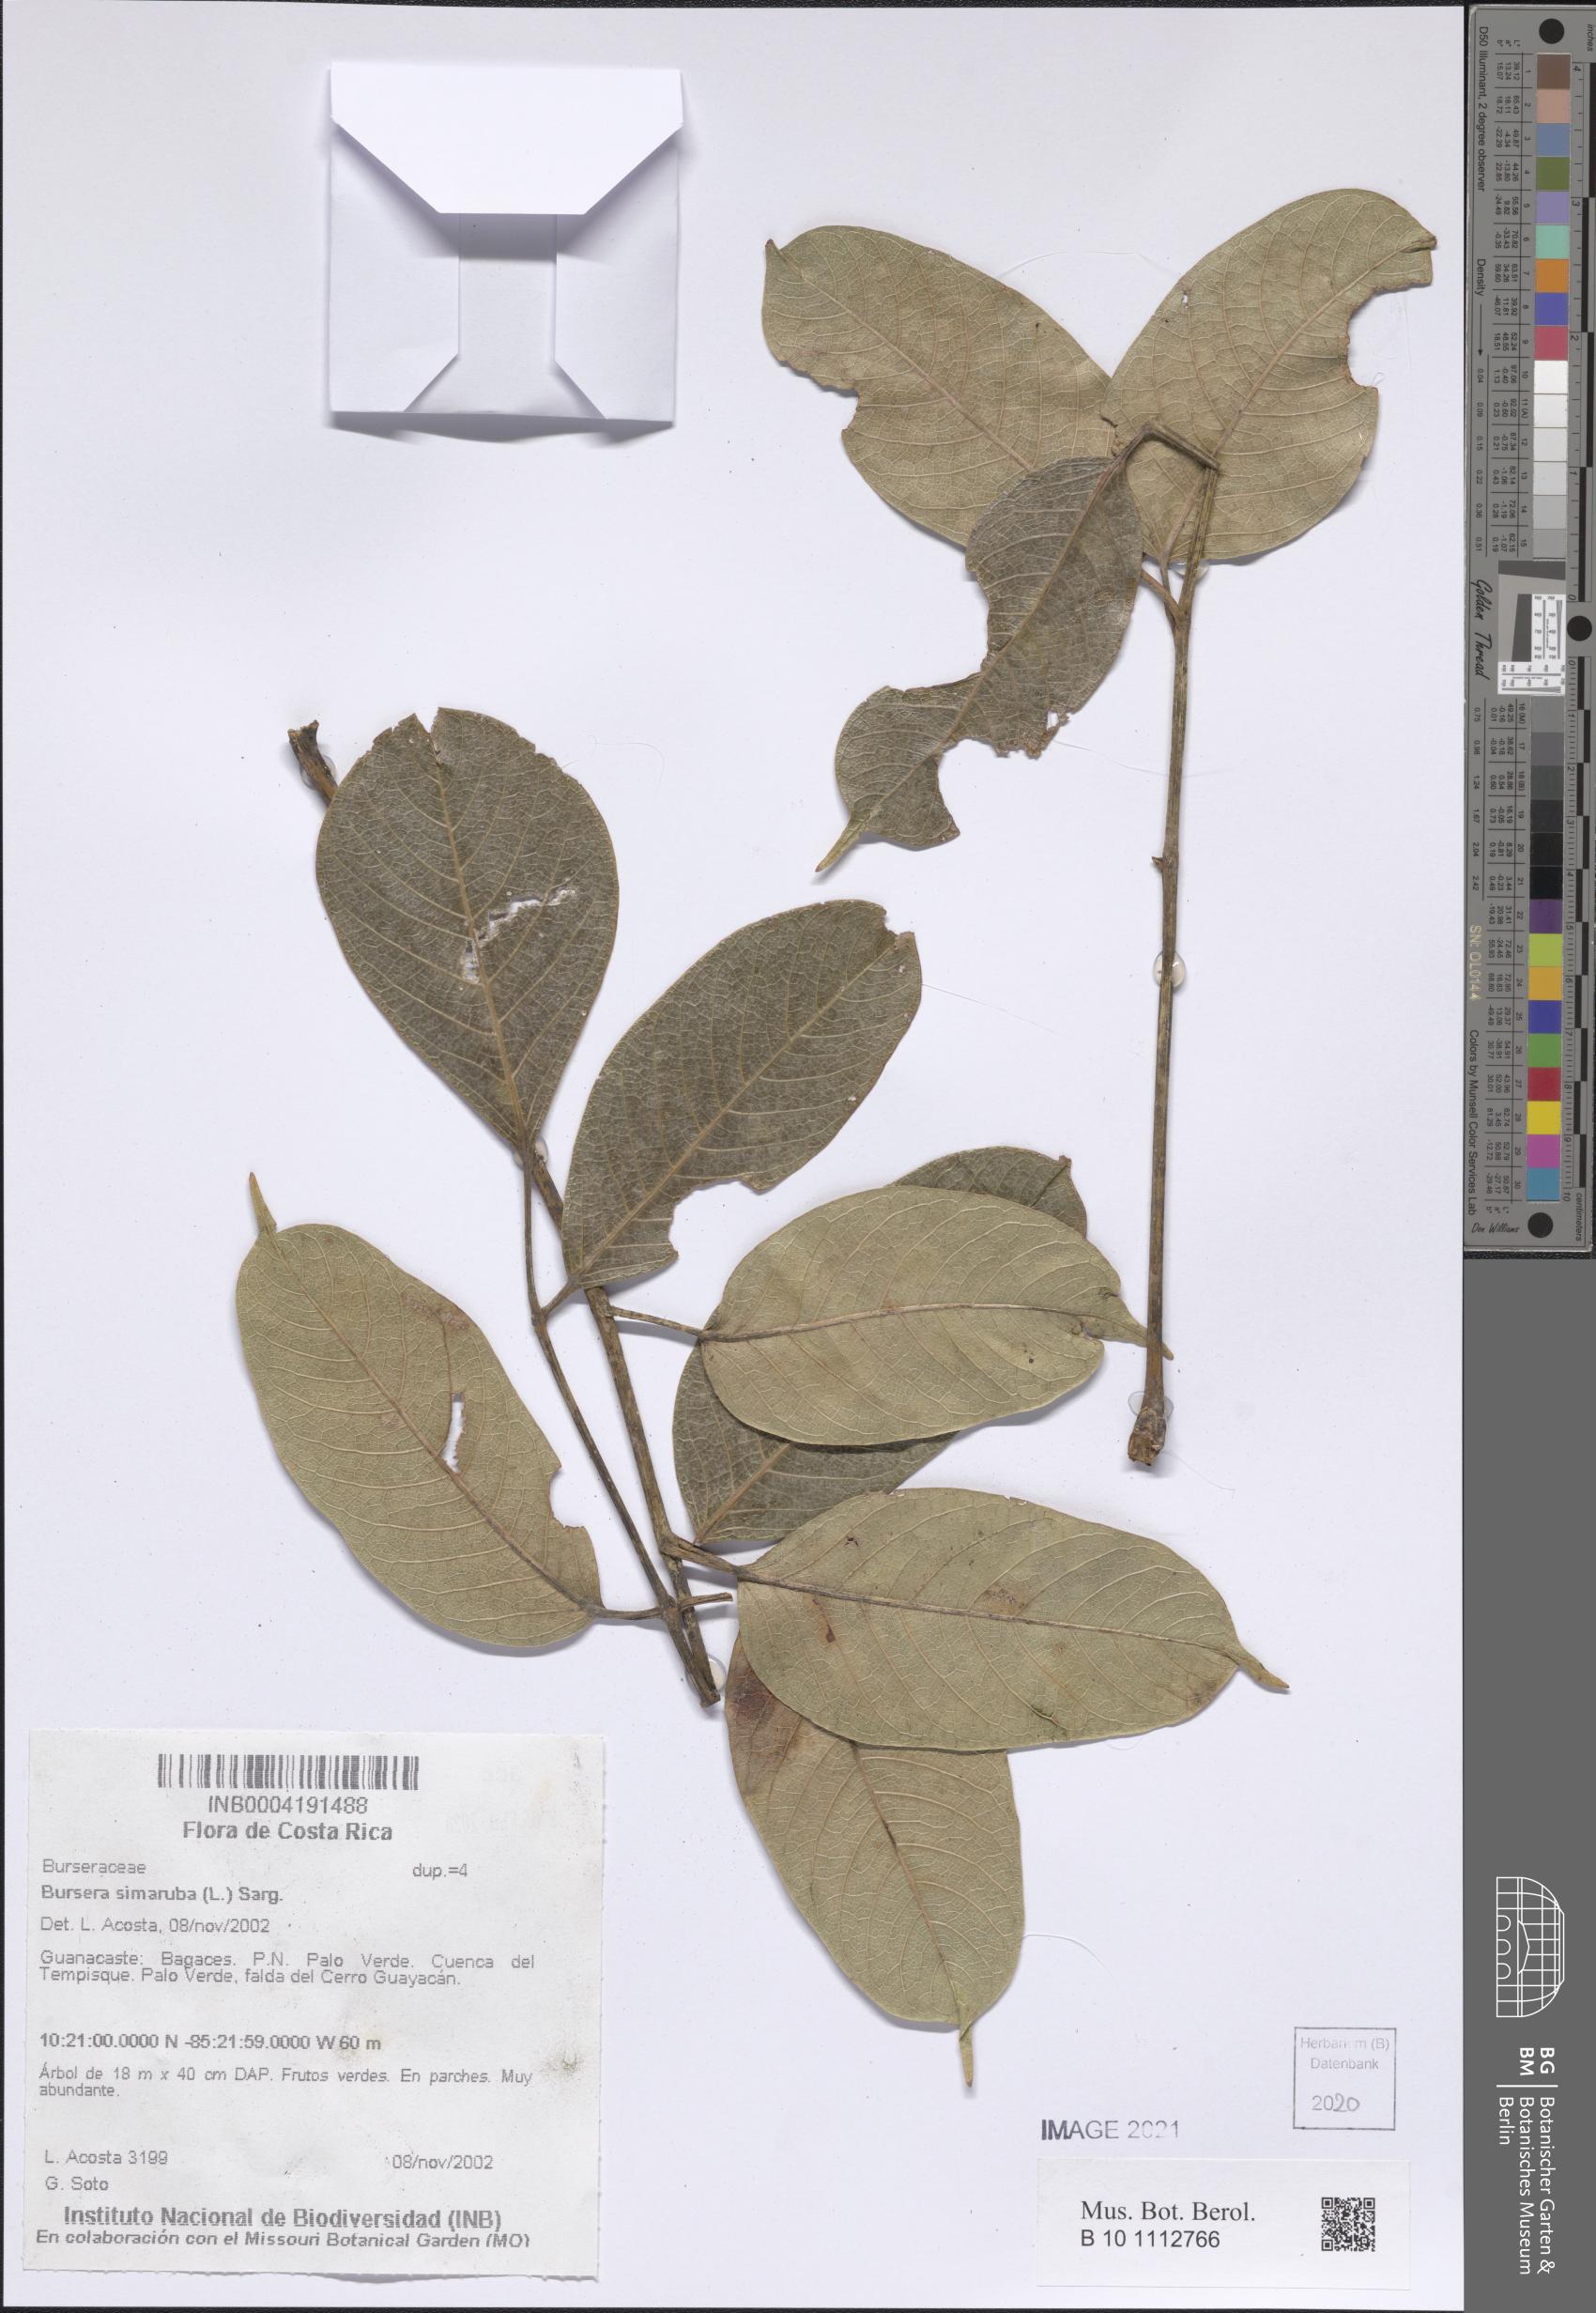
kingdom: Plantae
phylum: Tracheophyta
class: Magnoliopsida
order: Sapindales
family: Burseraceae
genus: Bursera
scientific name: Bursera simaruba
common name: Turpentine tree
